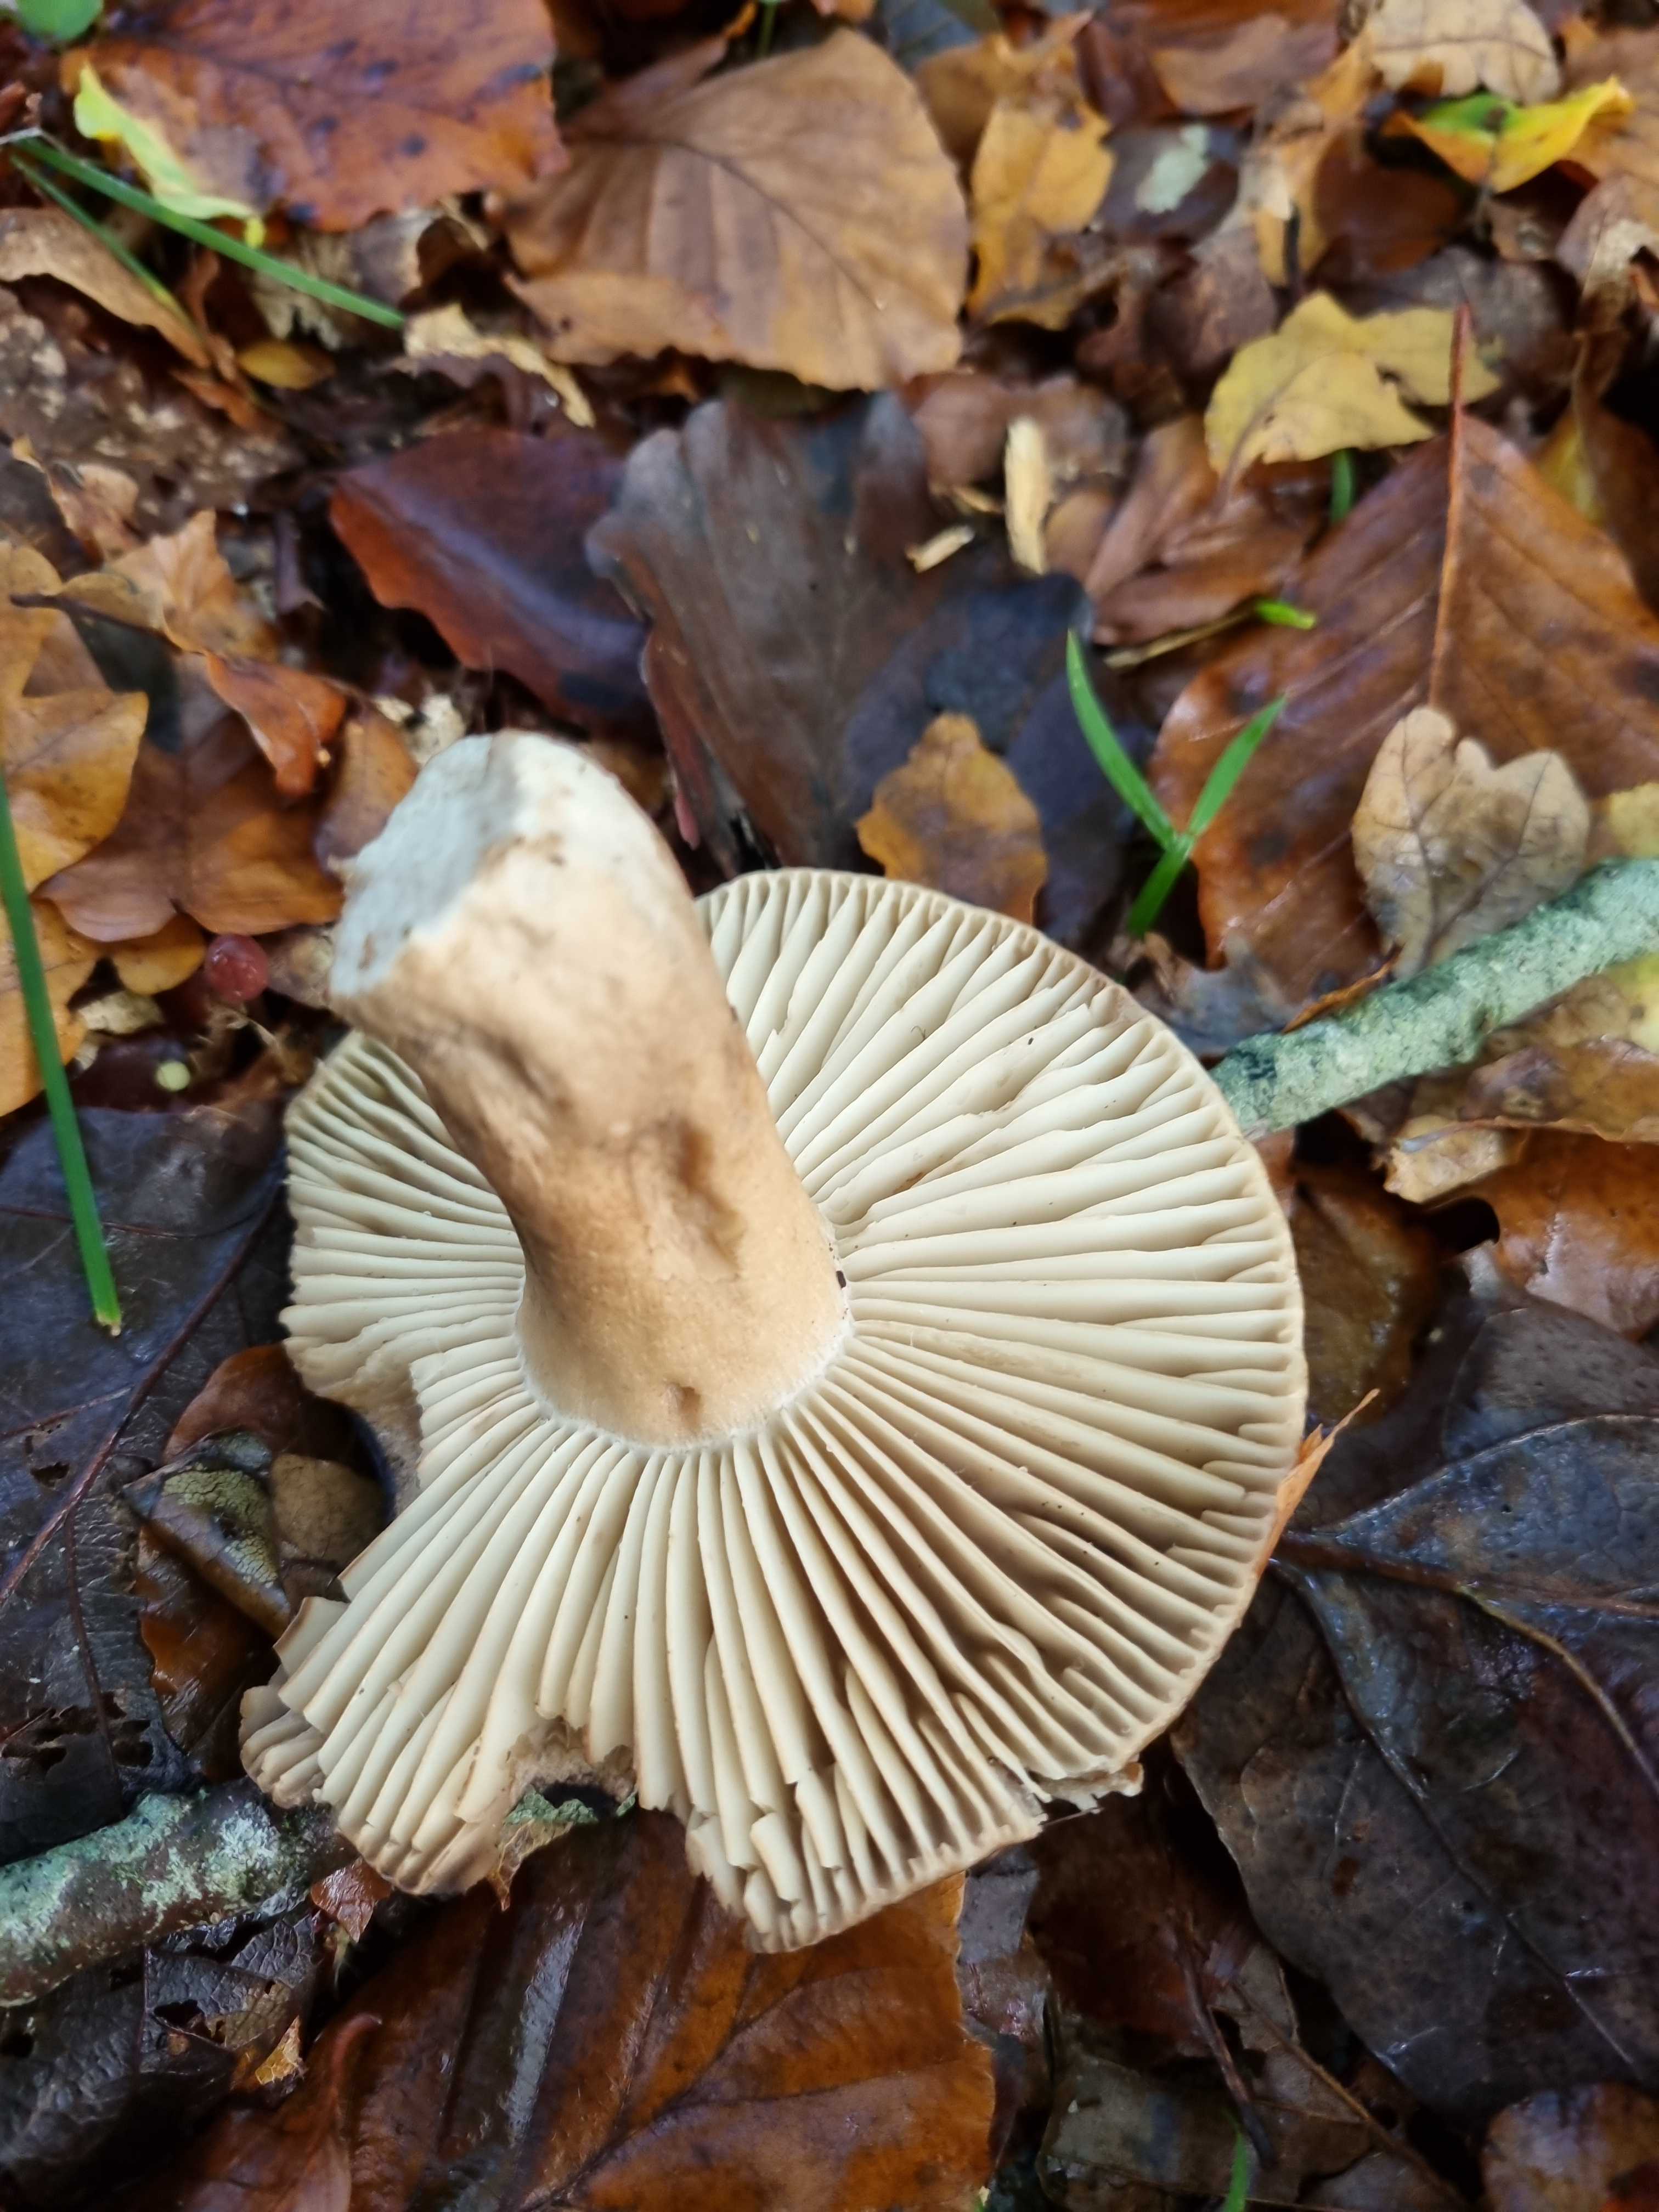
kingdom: Fungi
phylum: Basidiomycota
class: Agaricomycetes
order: Russulales
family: Russulaceae
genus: Russula
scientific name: Russula adusta
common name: sværtende skørhat
